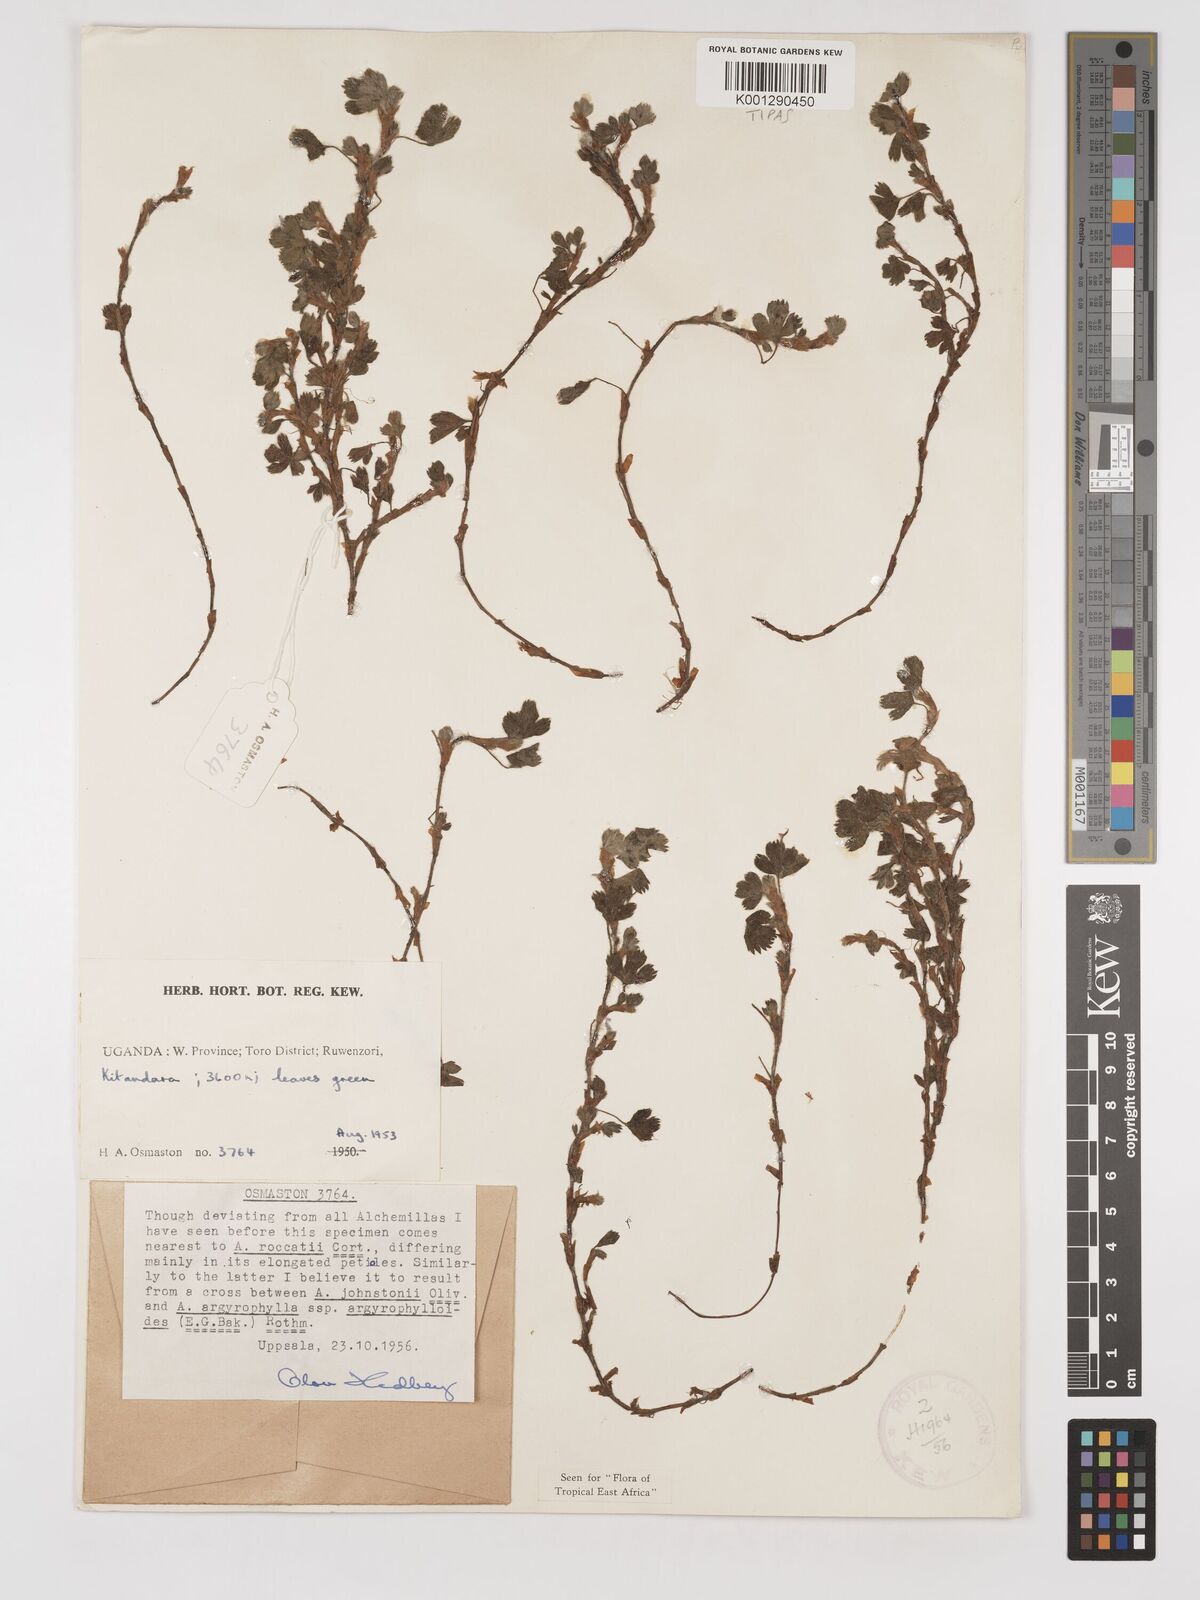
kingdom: Plantae
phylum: Tracheophyta
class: Magnoliopsida
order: Rosales
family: Rosaceae
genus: Alchemilla
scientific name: Alchemilla roccatii
